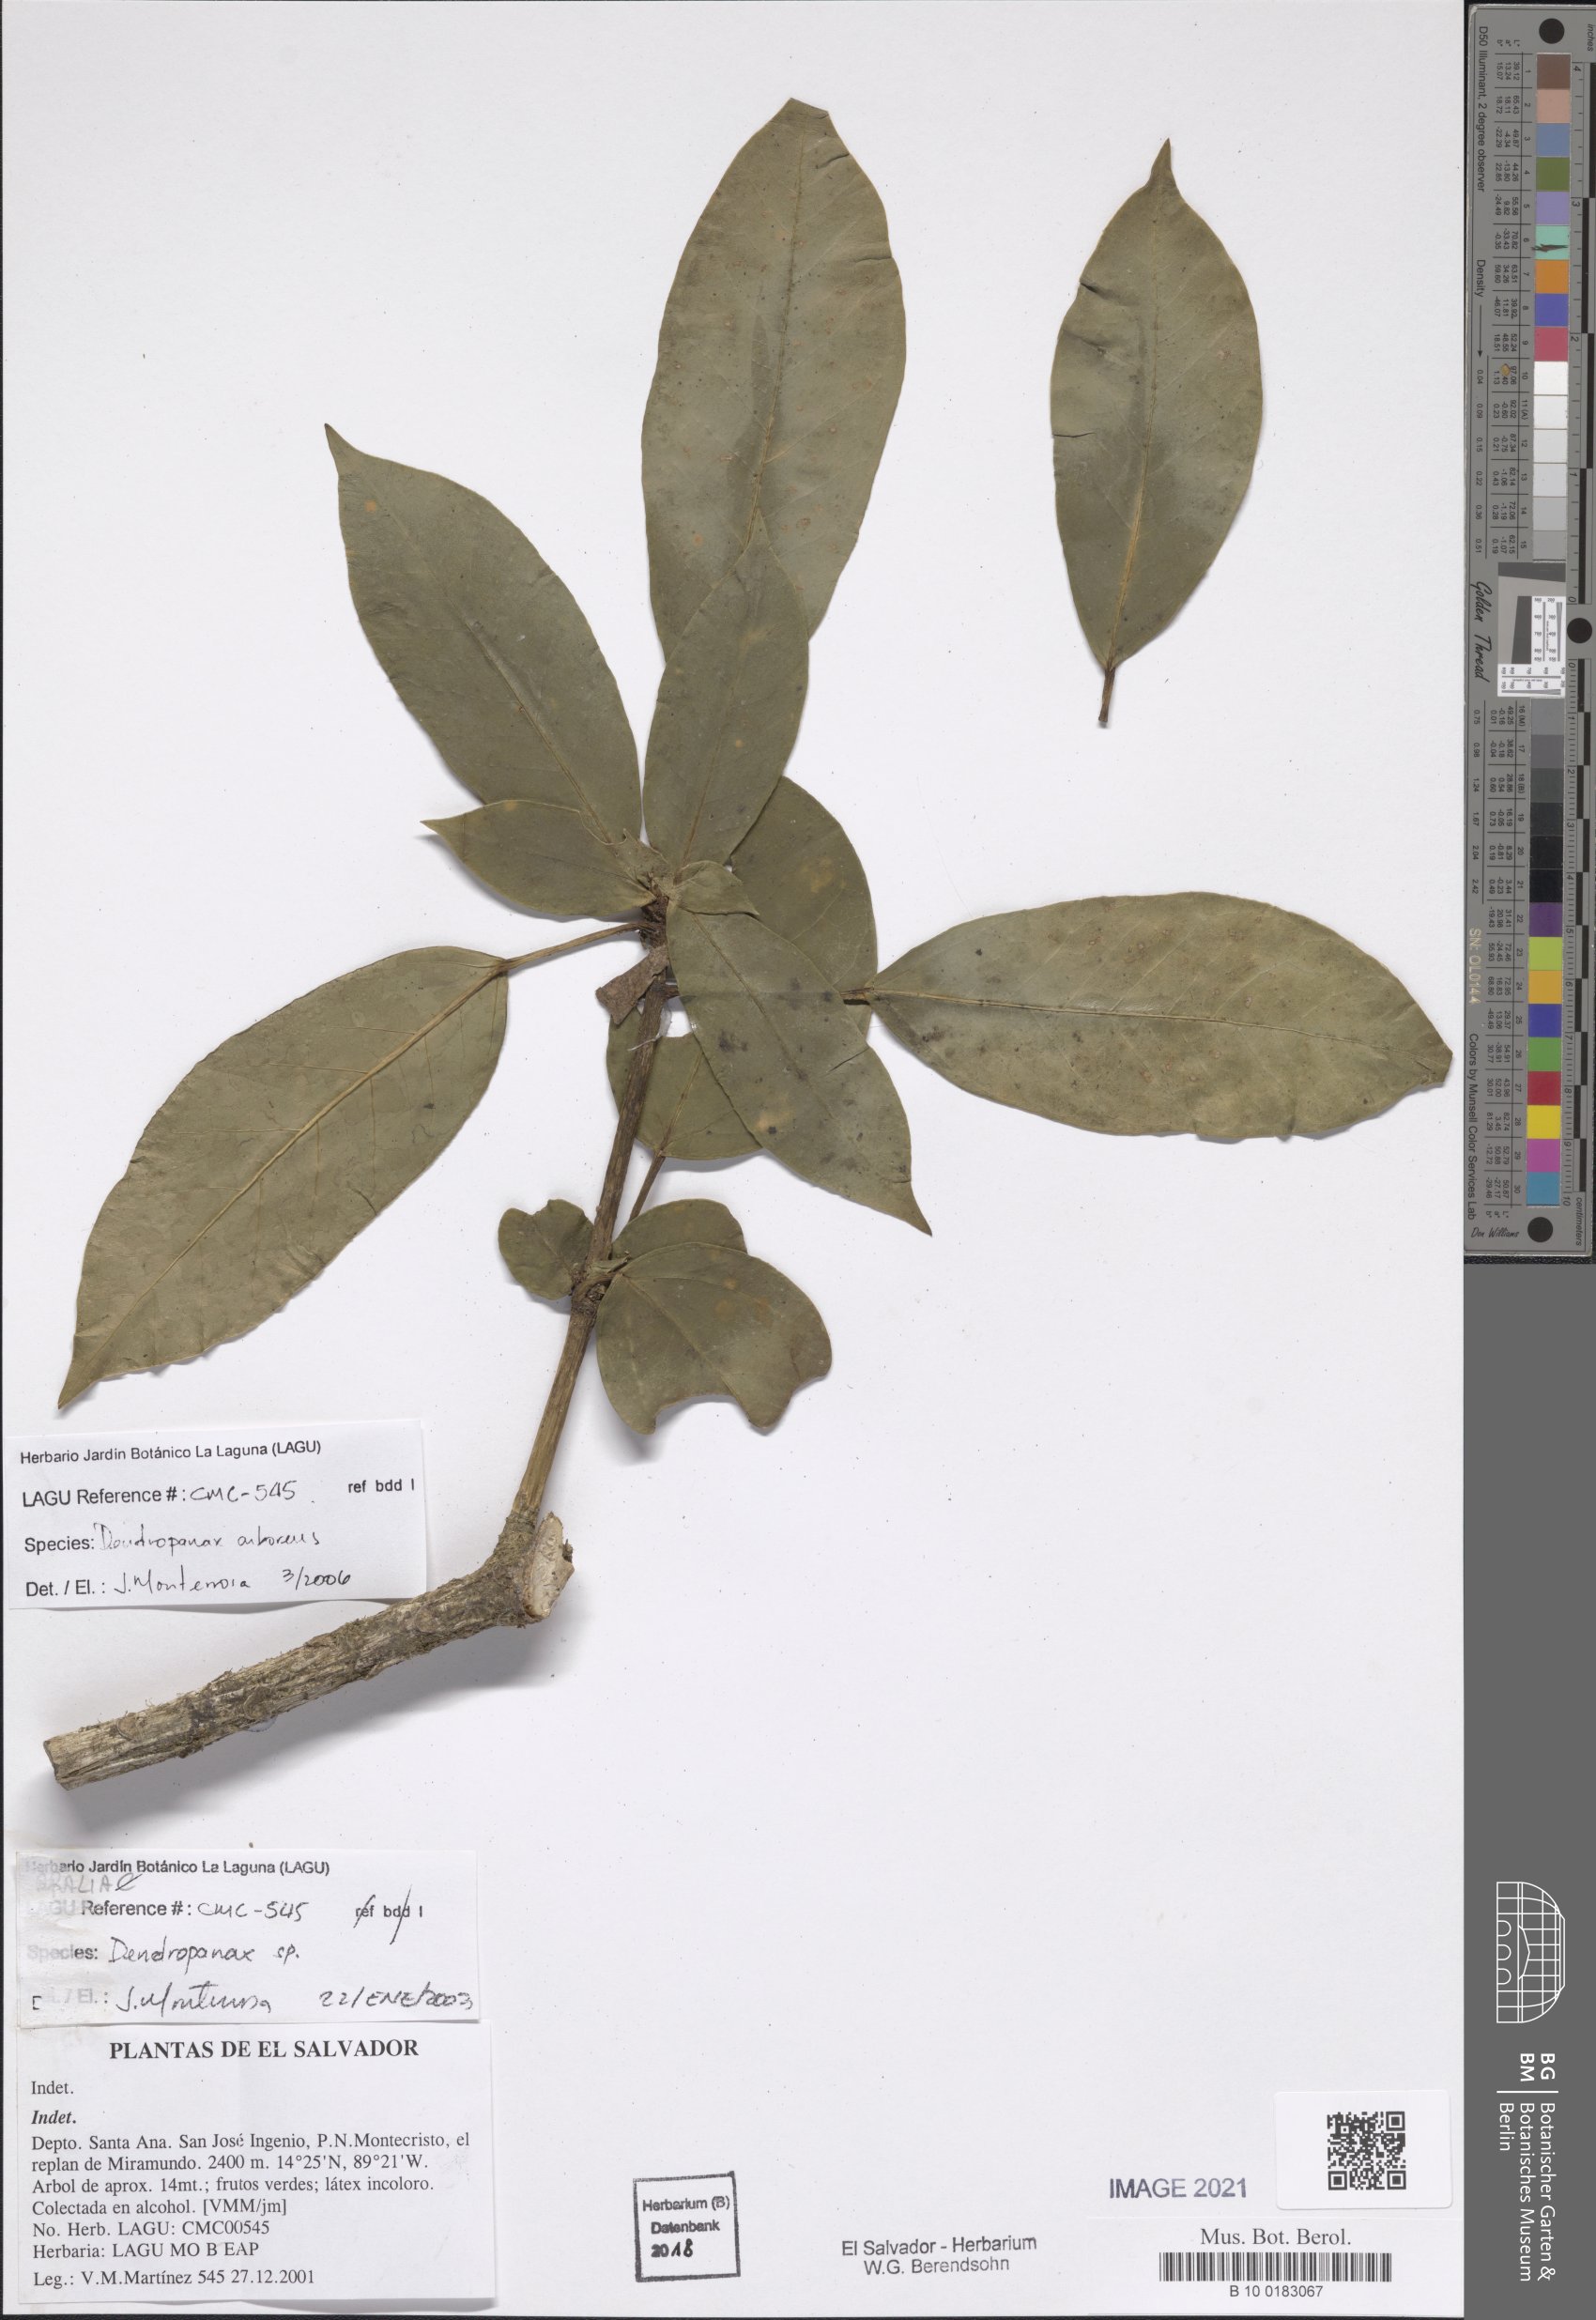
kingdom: Plantae
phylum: Tracheophyta
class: Magnoliopsida
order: Apiales
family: Araliaceae
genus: Oreopanax
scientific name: Oreopanax capitatus
